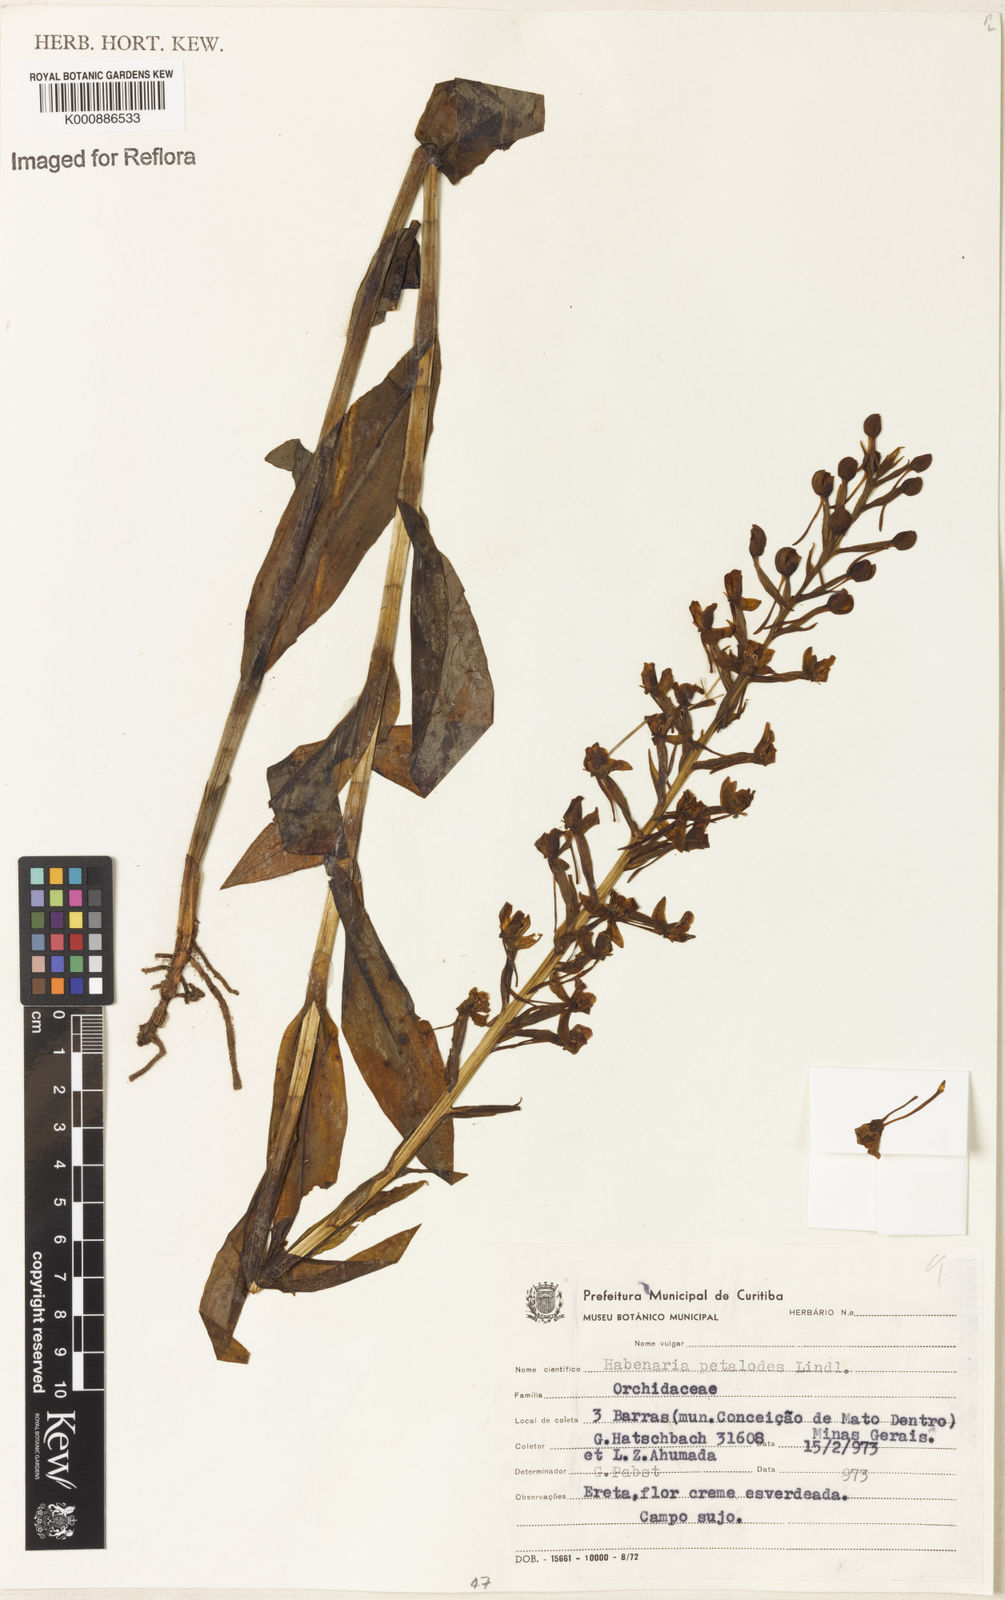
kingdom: Plantae
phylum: Tracheophyta
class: Liliopsida
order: Asparagales
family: Orchidaceae
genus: Habenaria
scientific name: Habenaria petalodes
